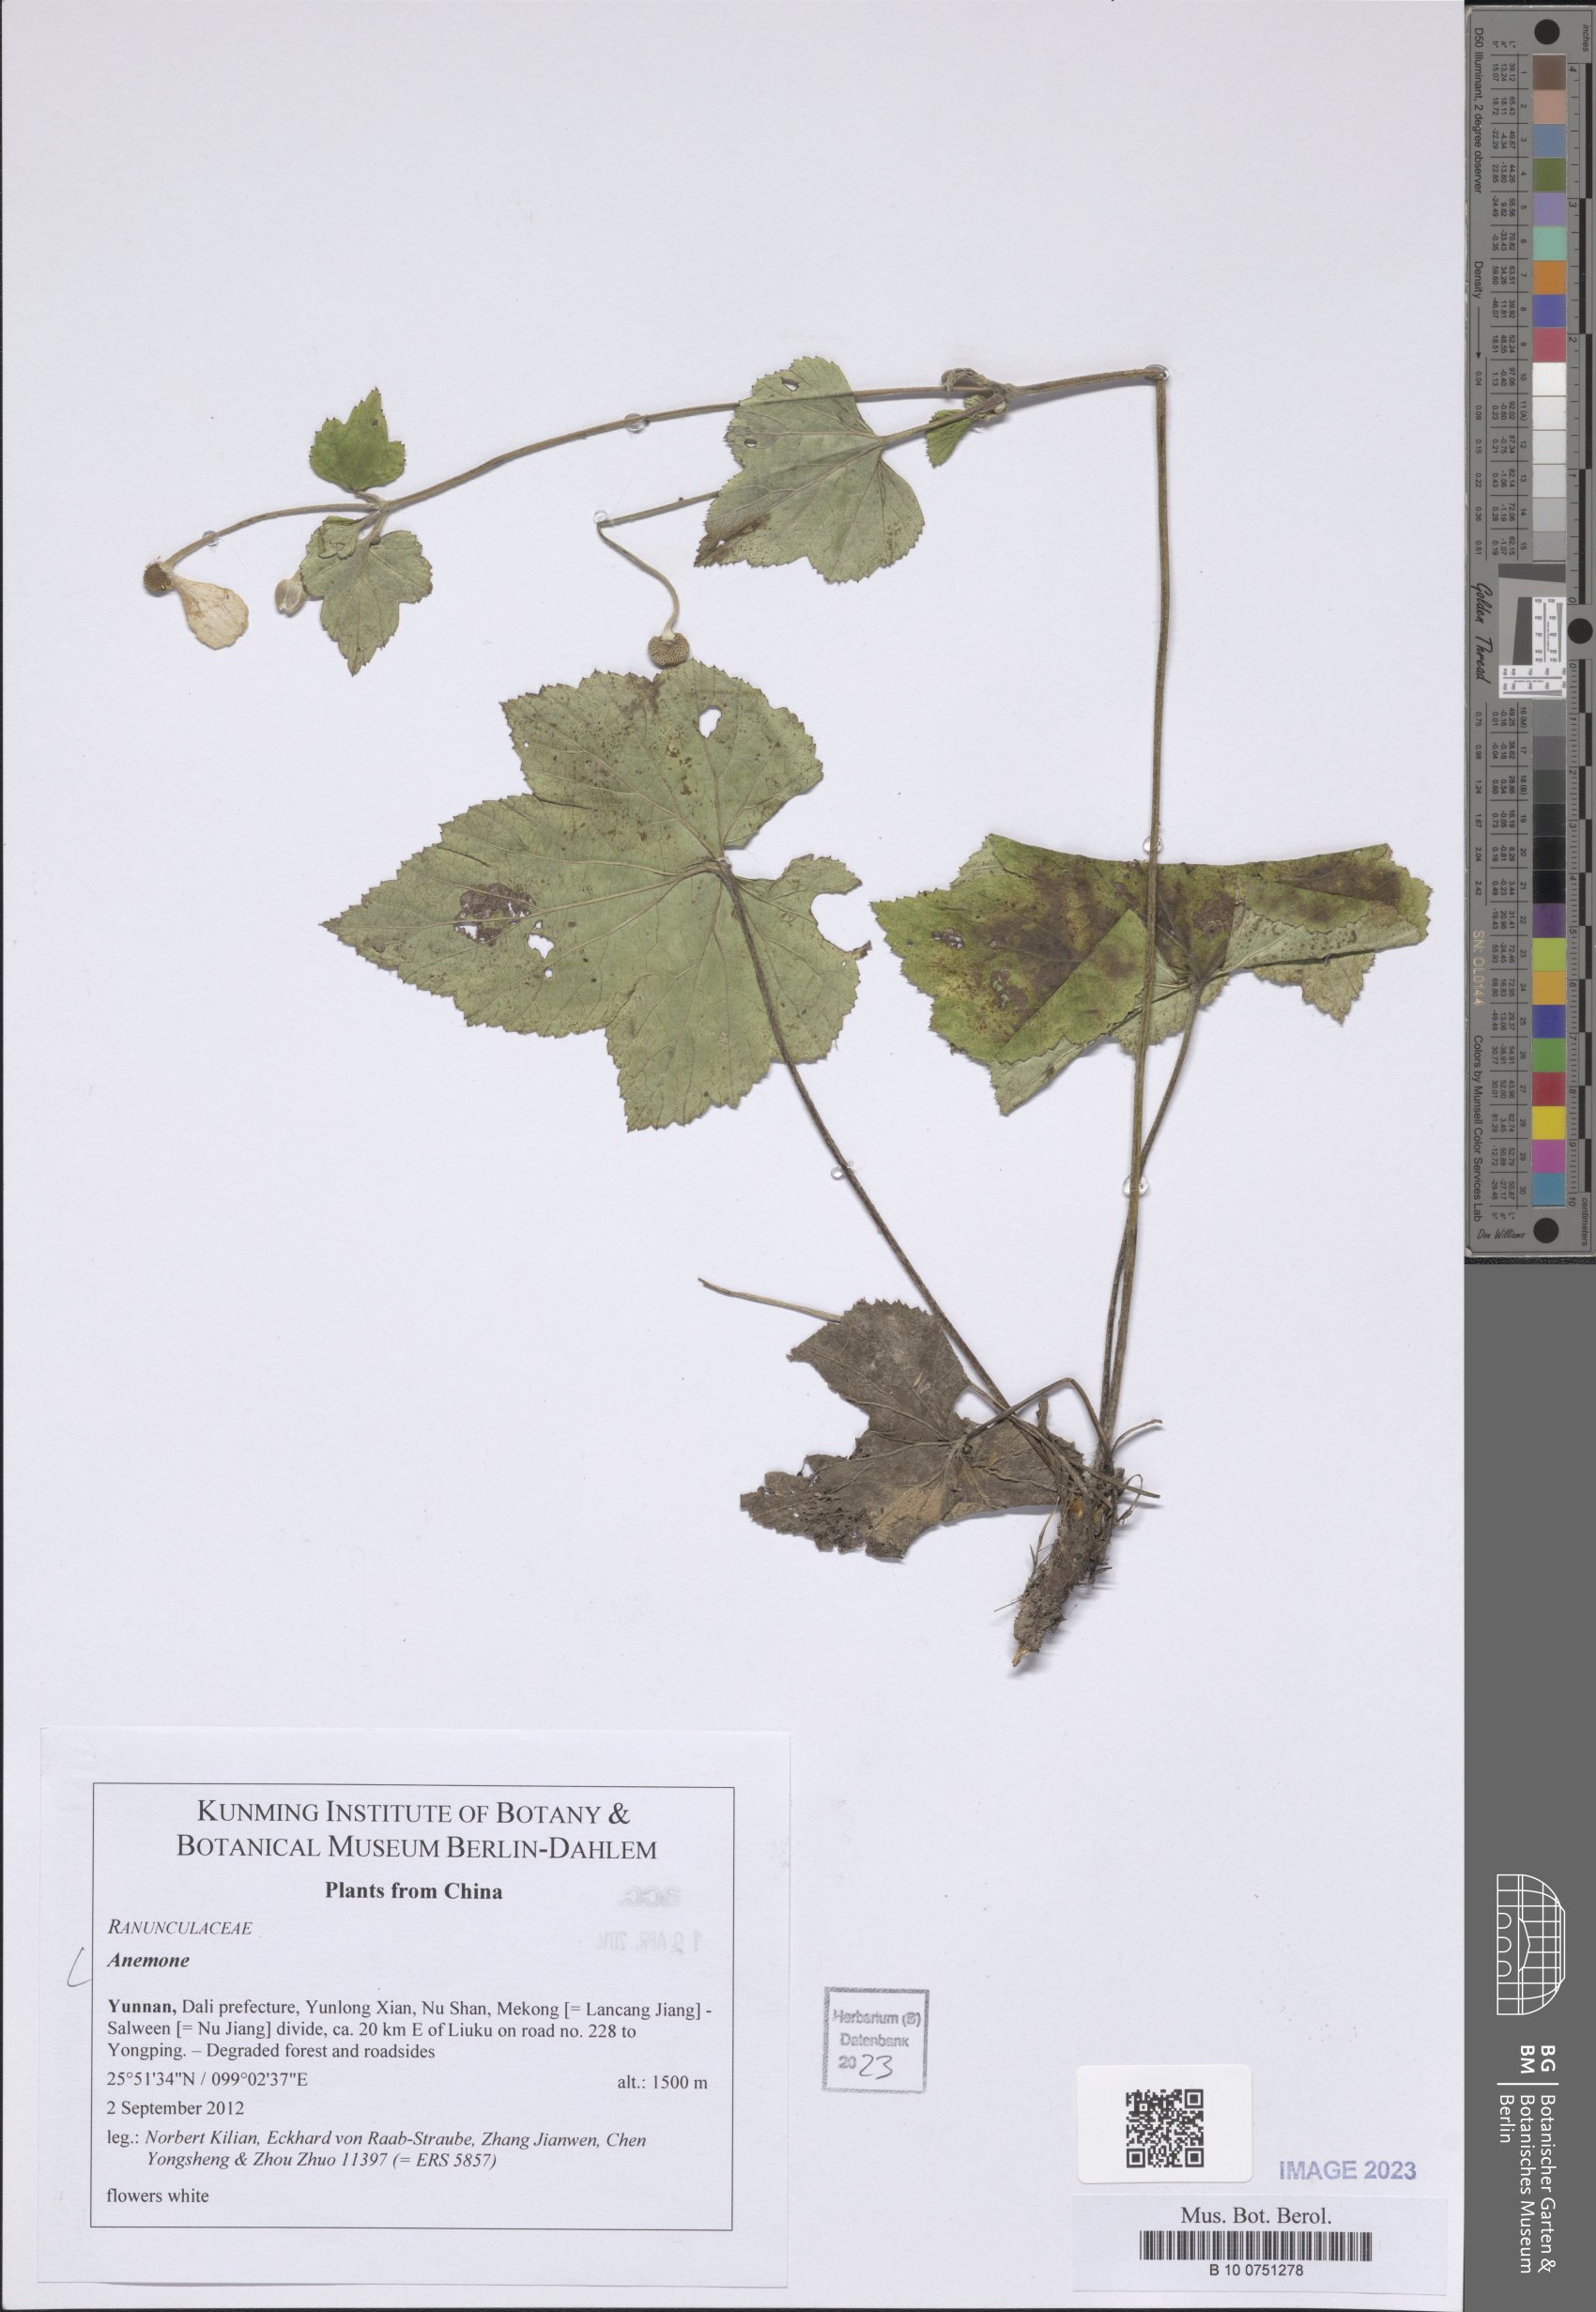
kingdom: Plantae
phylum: Tracheophyta
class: Magnoliopsida
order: Ranunculales
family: Ranunculaceae
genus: Anemone
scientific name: Anemone
